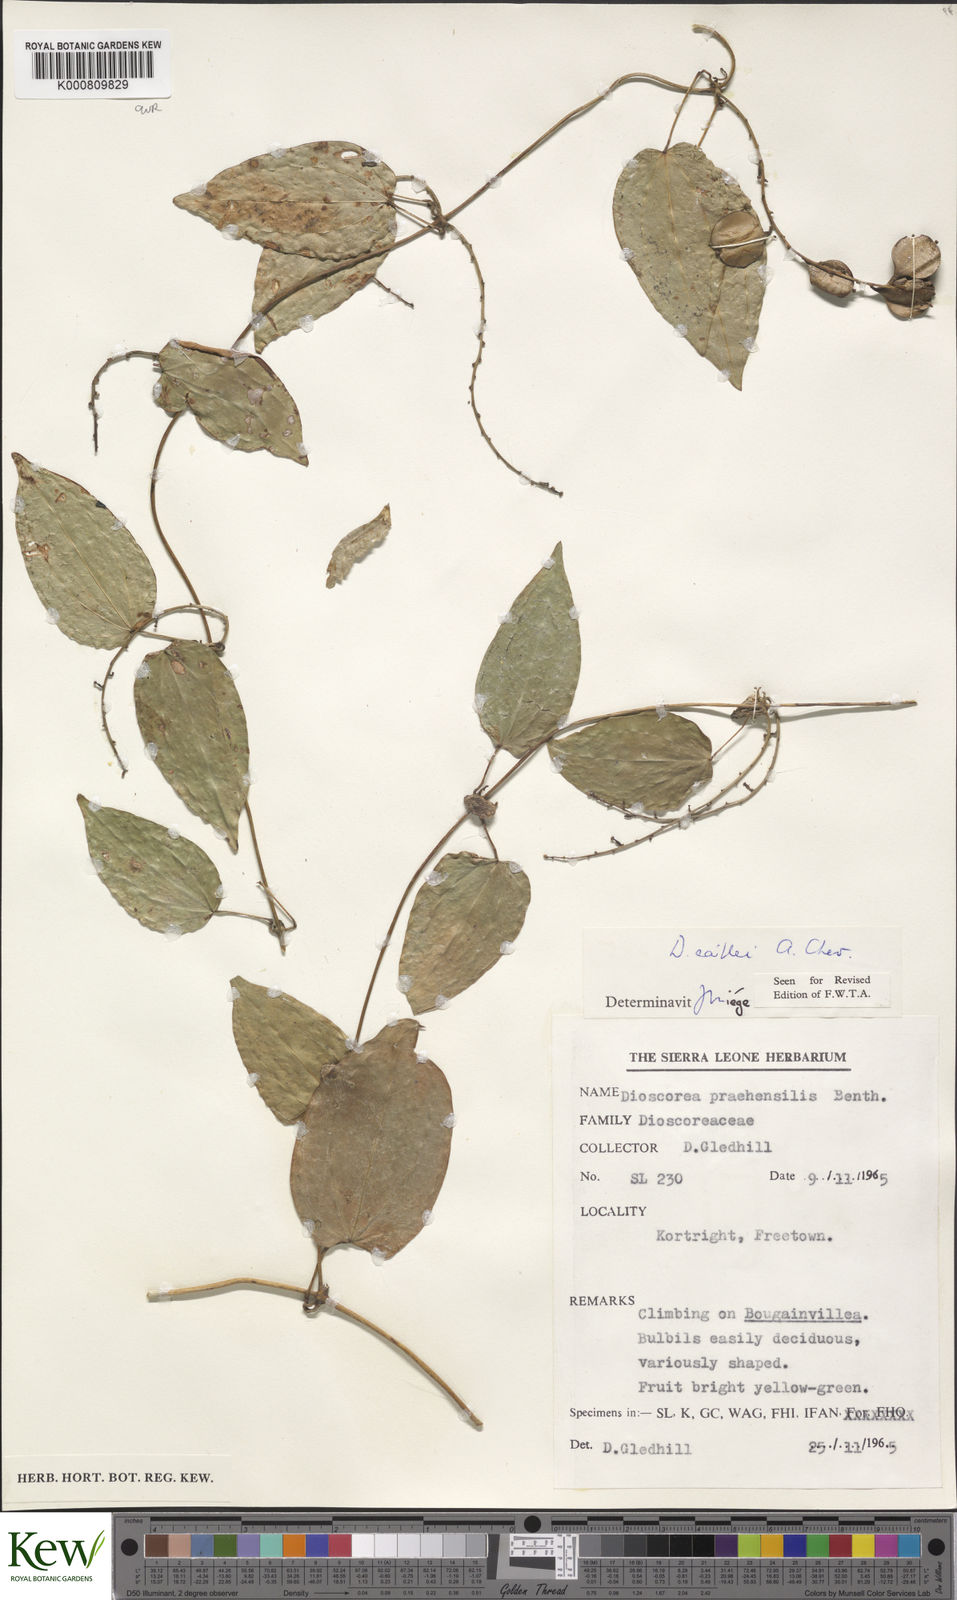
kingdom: Plantae
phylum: Tracheophyta
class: Liliopsida
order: Dioscoreales
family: Dioscoreaceae
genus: Dioscorea
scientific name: Dioscorea togoensis
